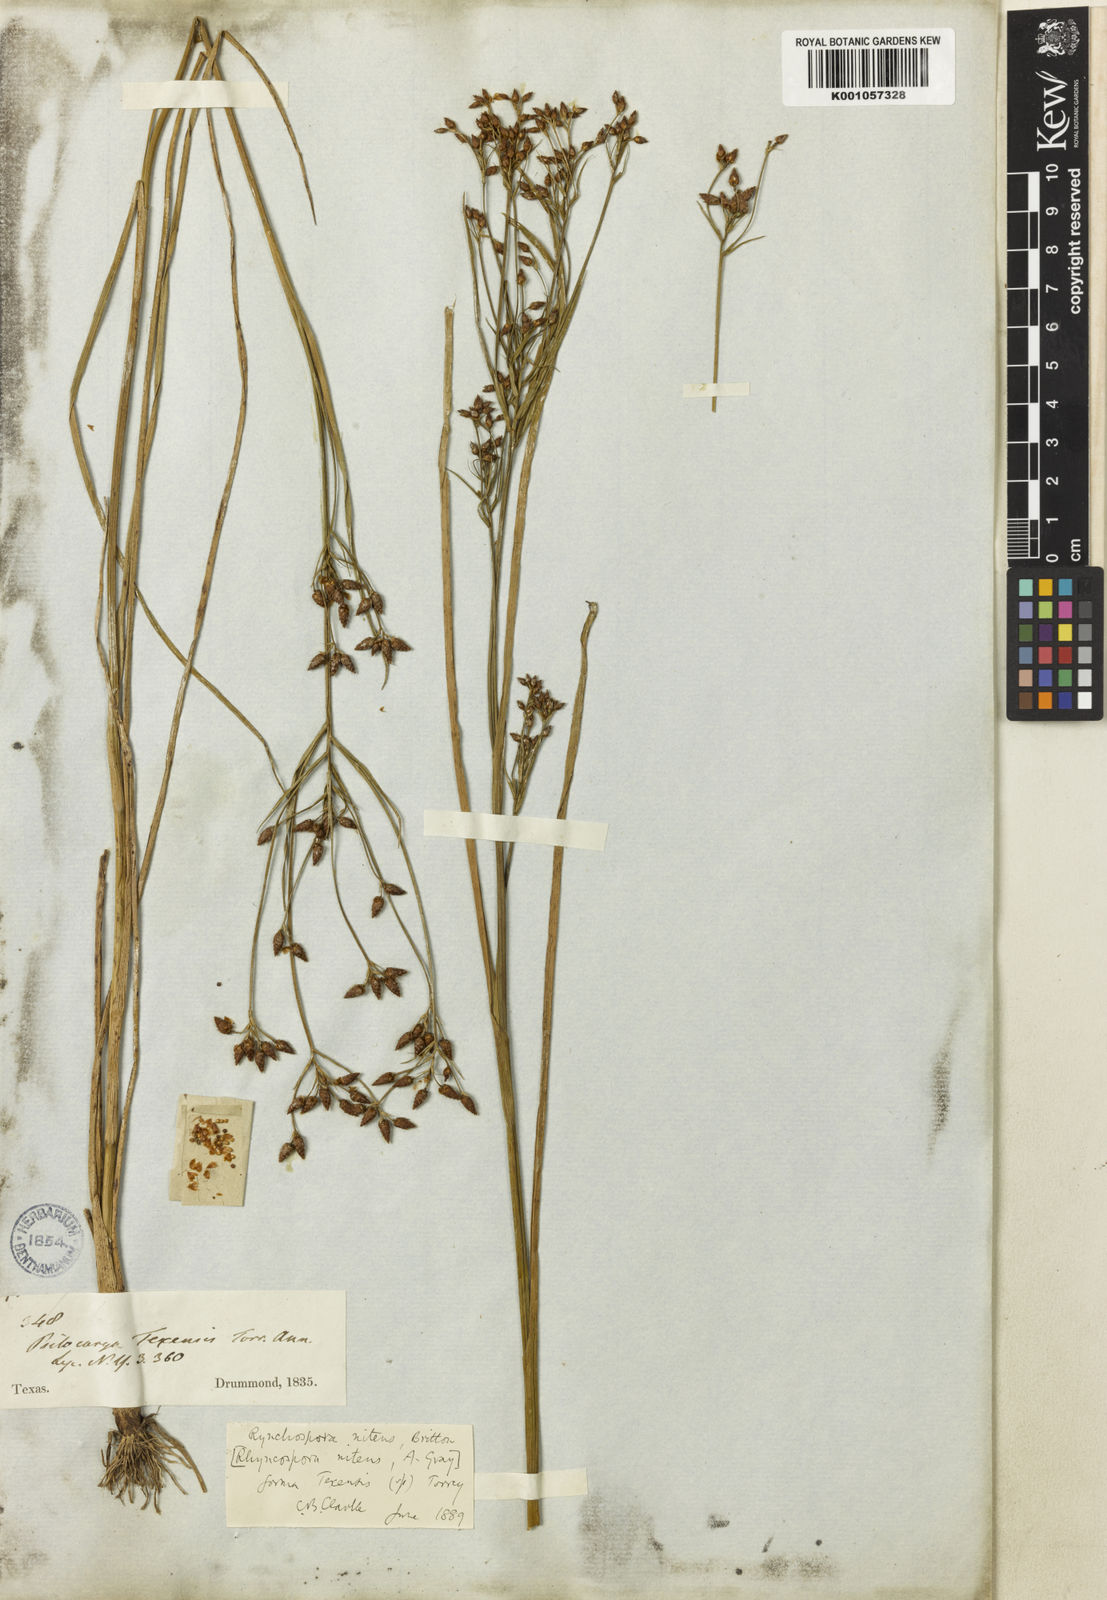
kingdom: Plantae
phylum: Tracheophyta
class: Liliopsida
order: Poales
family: Cyperaceae
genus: Rhynchospora
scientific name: Rhynchospora nitens
